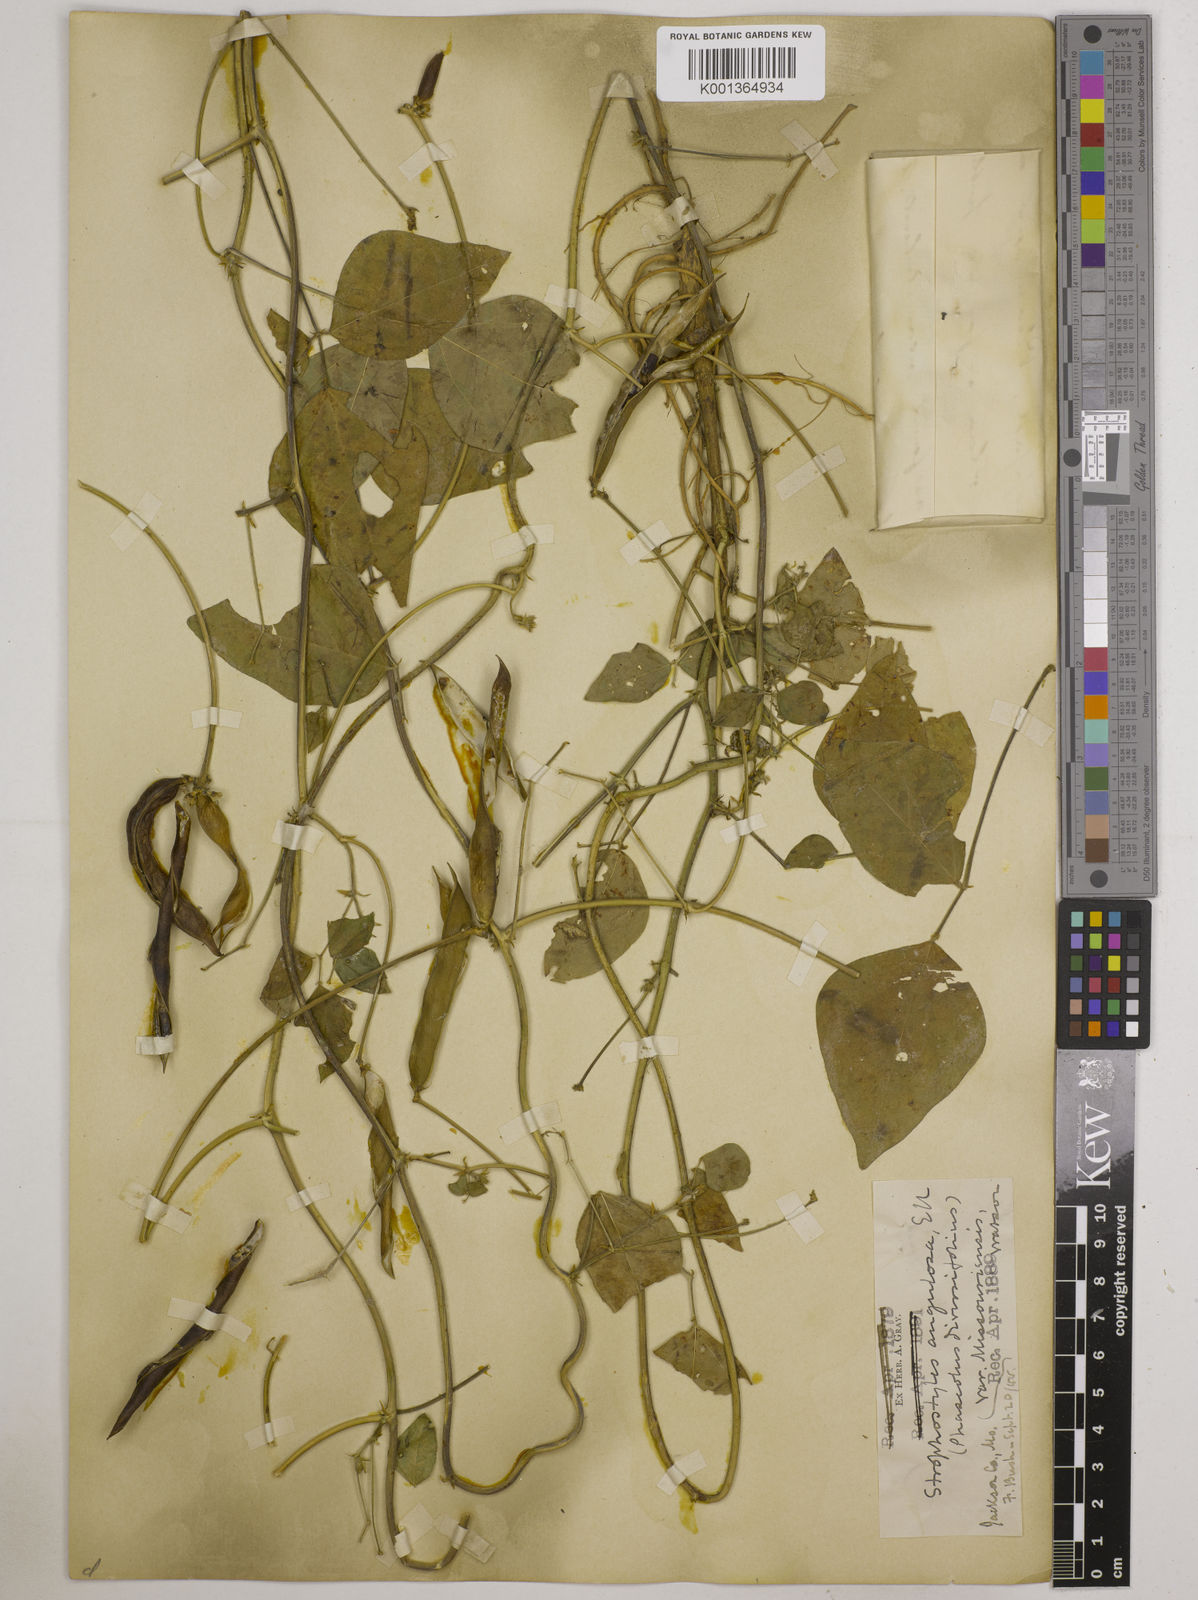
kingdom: Plantae
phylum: Tracheophyta
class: Magnoliopsida
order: Fabales
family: Fabaceae
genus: Strophostyles
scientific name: Strophostyles
